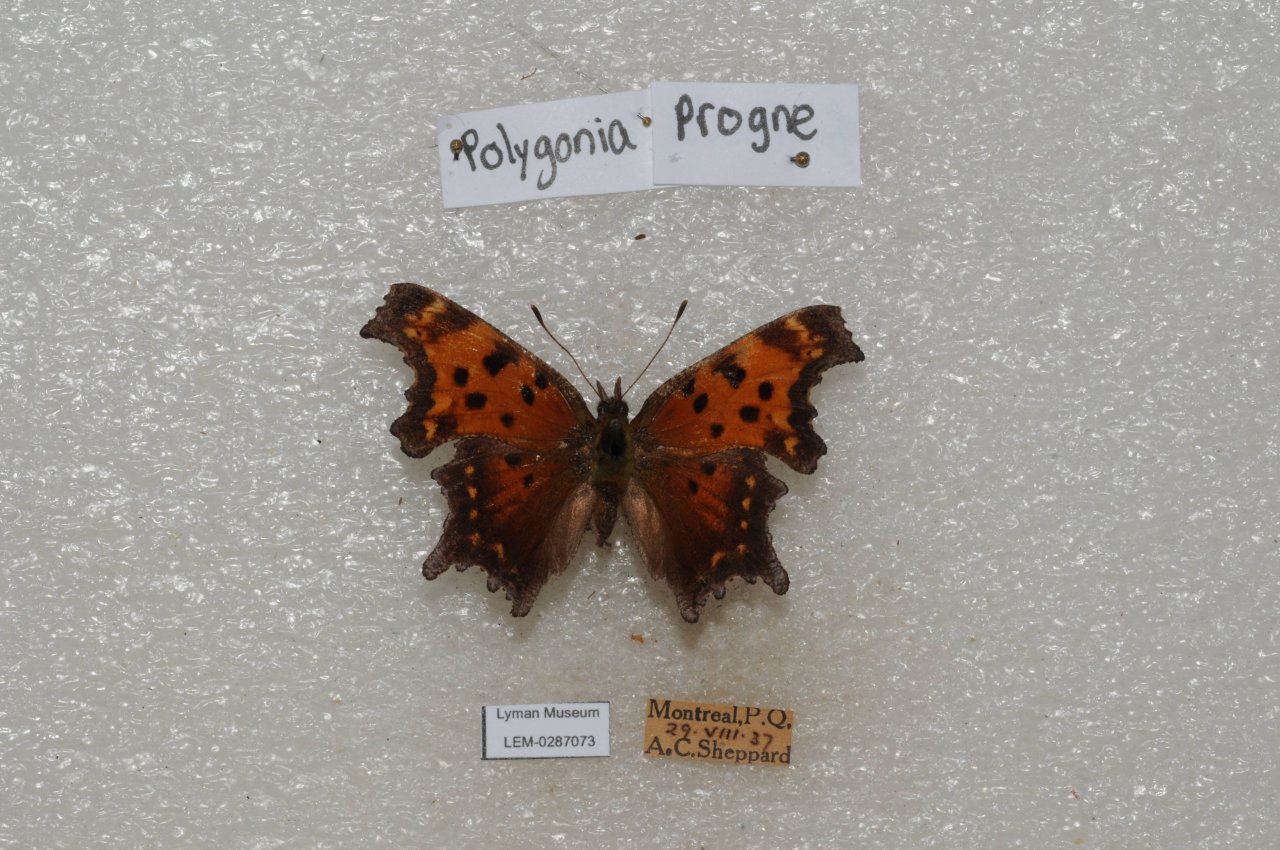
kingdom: Animalia
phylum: Arthropoda
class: Insecta
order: Lepidoptera
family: Nymphalidae
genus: Polygonia
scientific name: Polygonia progne
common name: Gray Comma
